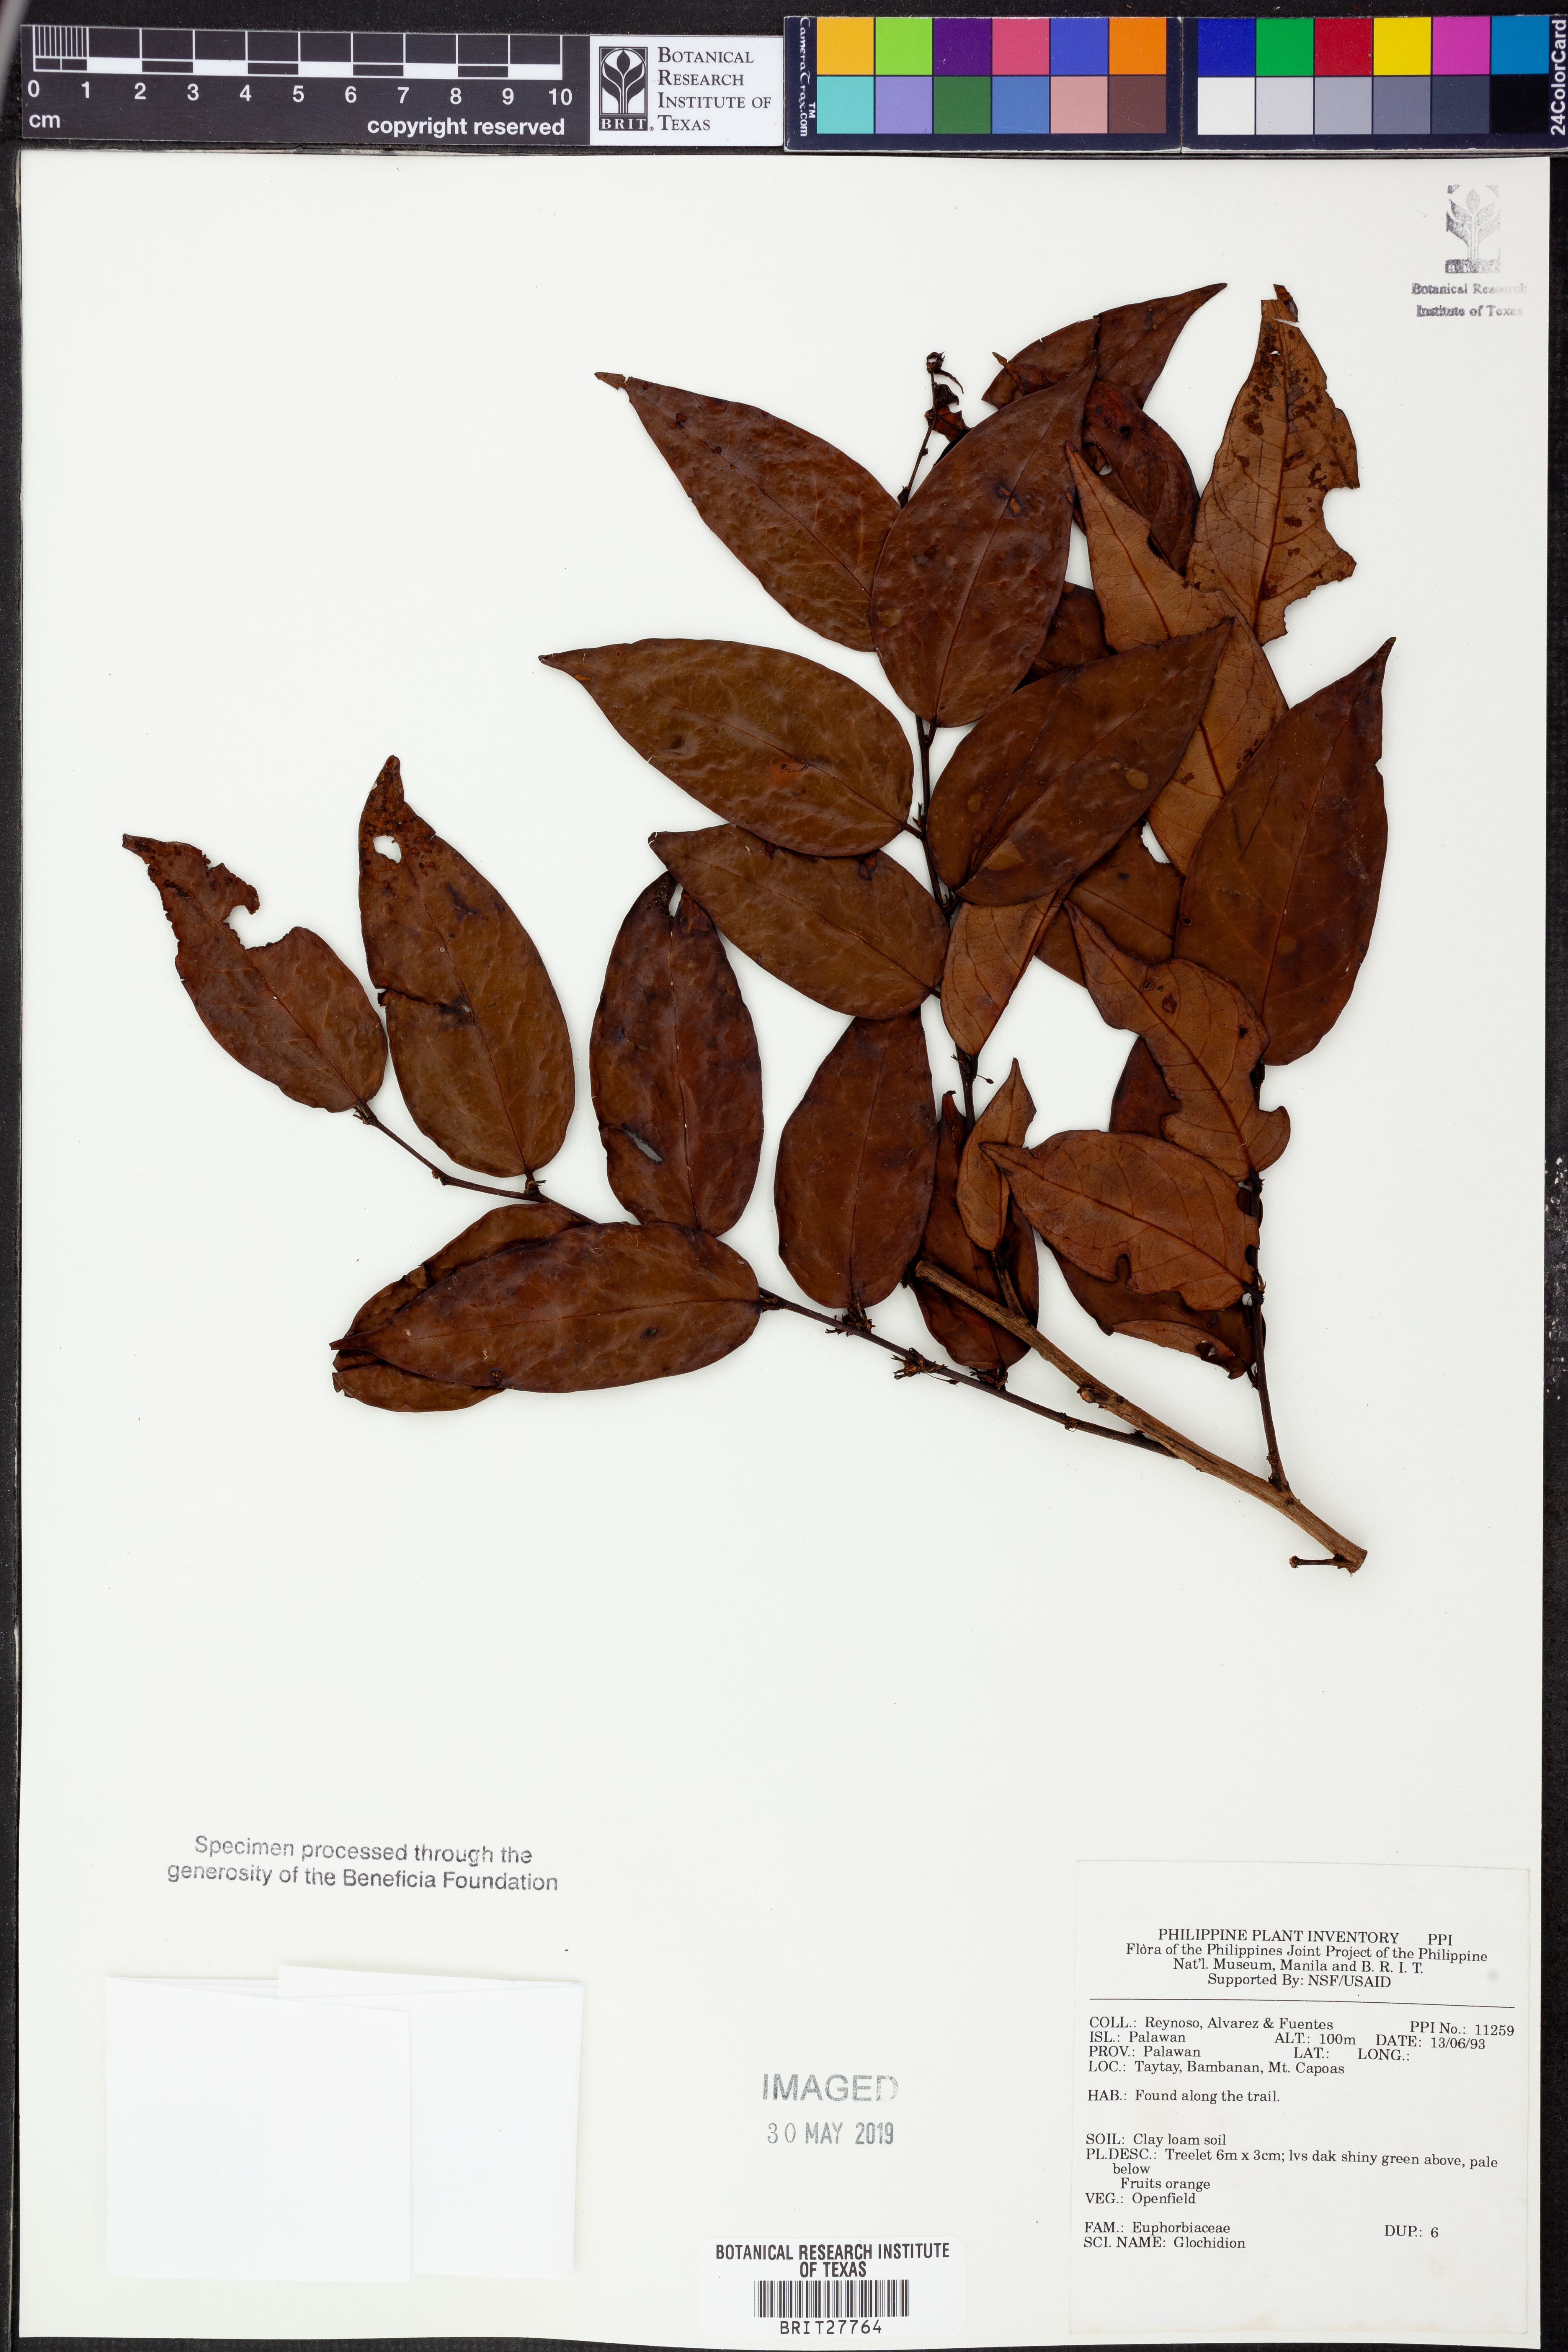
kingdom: Plantae
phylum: Tracheophyta
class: Magnoliopsida
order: Malpighiales
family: Phyllanthaceae
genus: Glochidion
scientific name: Glochidion
